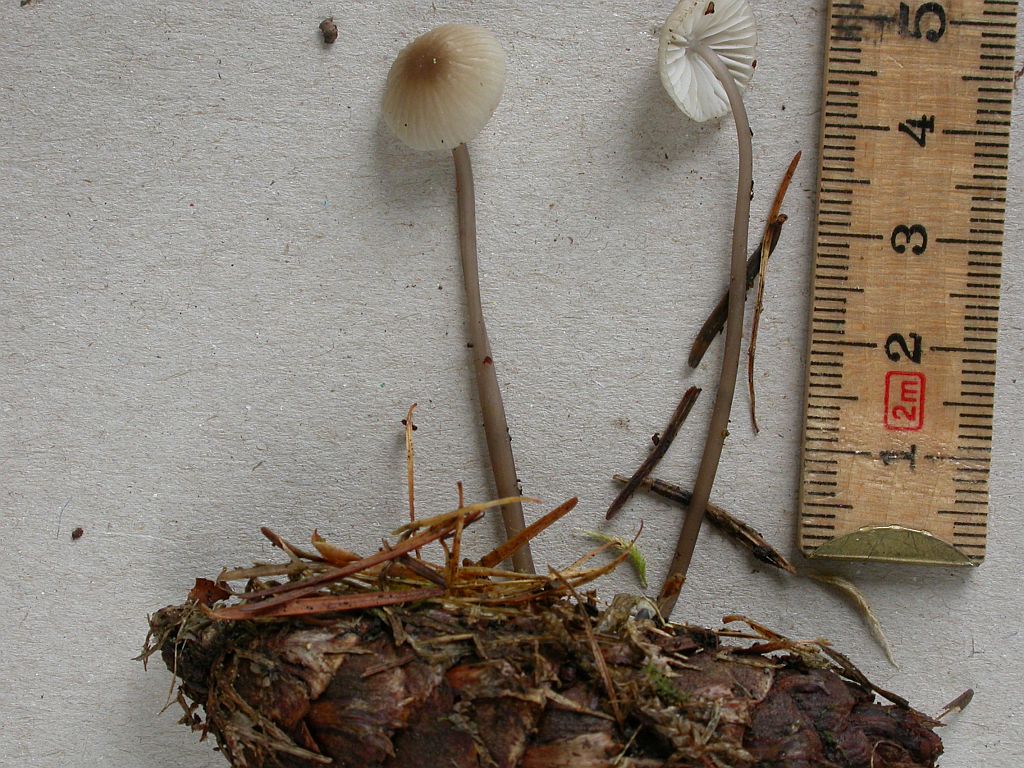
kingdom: Fungi
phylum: Basidiomycota
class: Agaricomycetes
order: Agaricales
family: Mycenaceae
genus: Mycena
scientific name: Mycena galopus
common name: hvidmælket huesvamp
